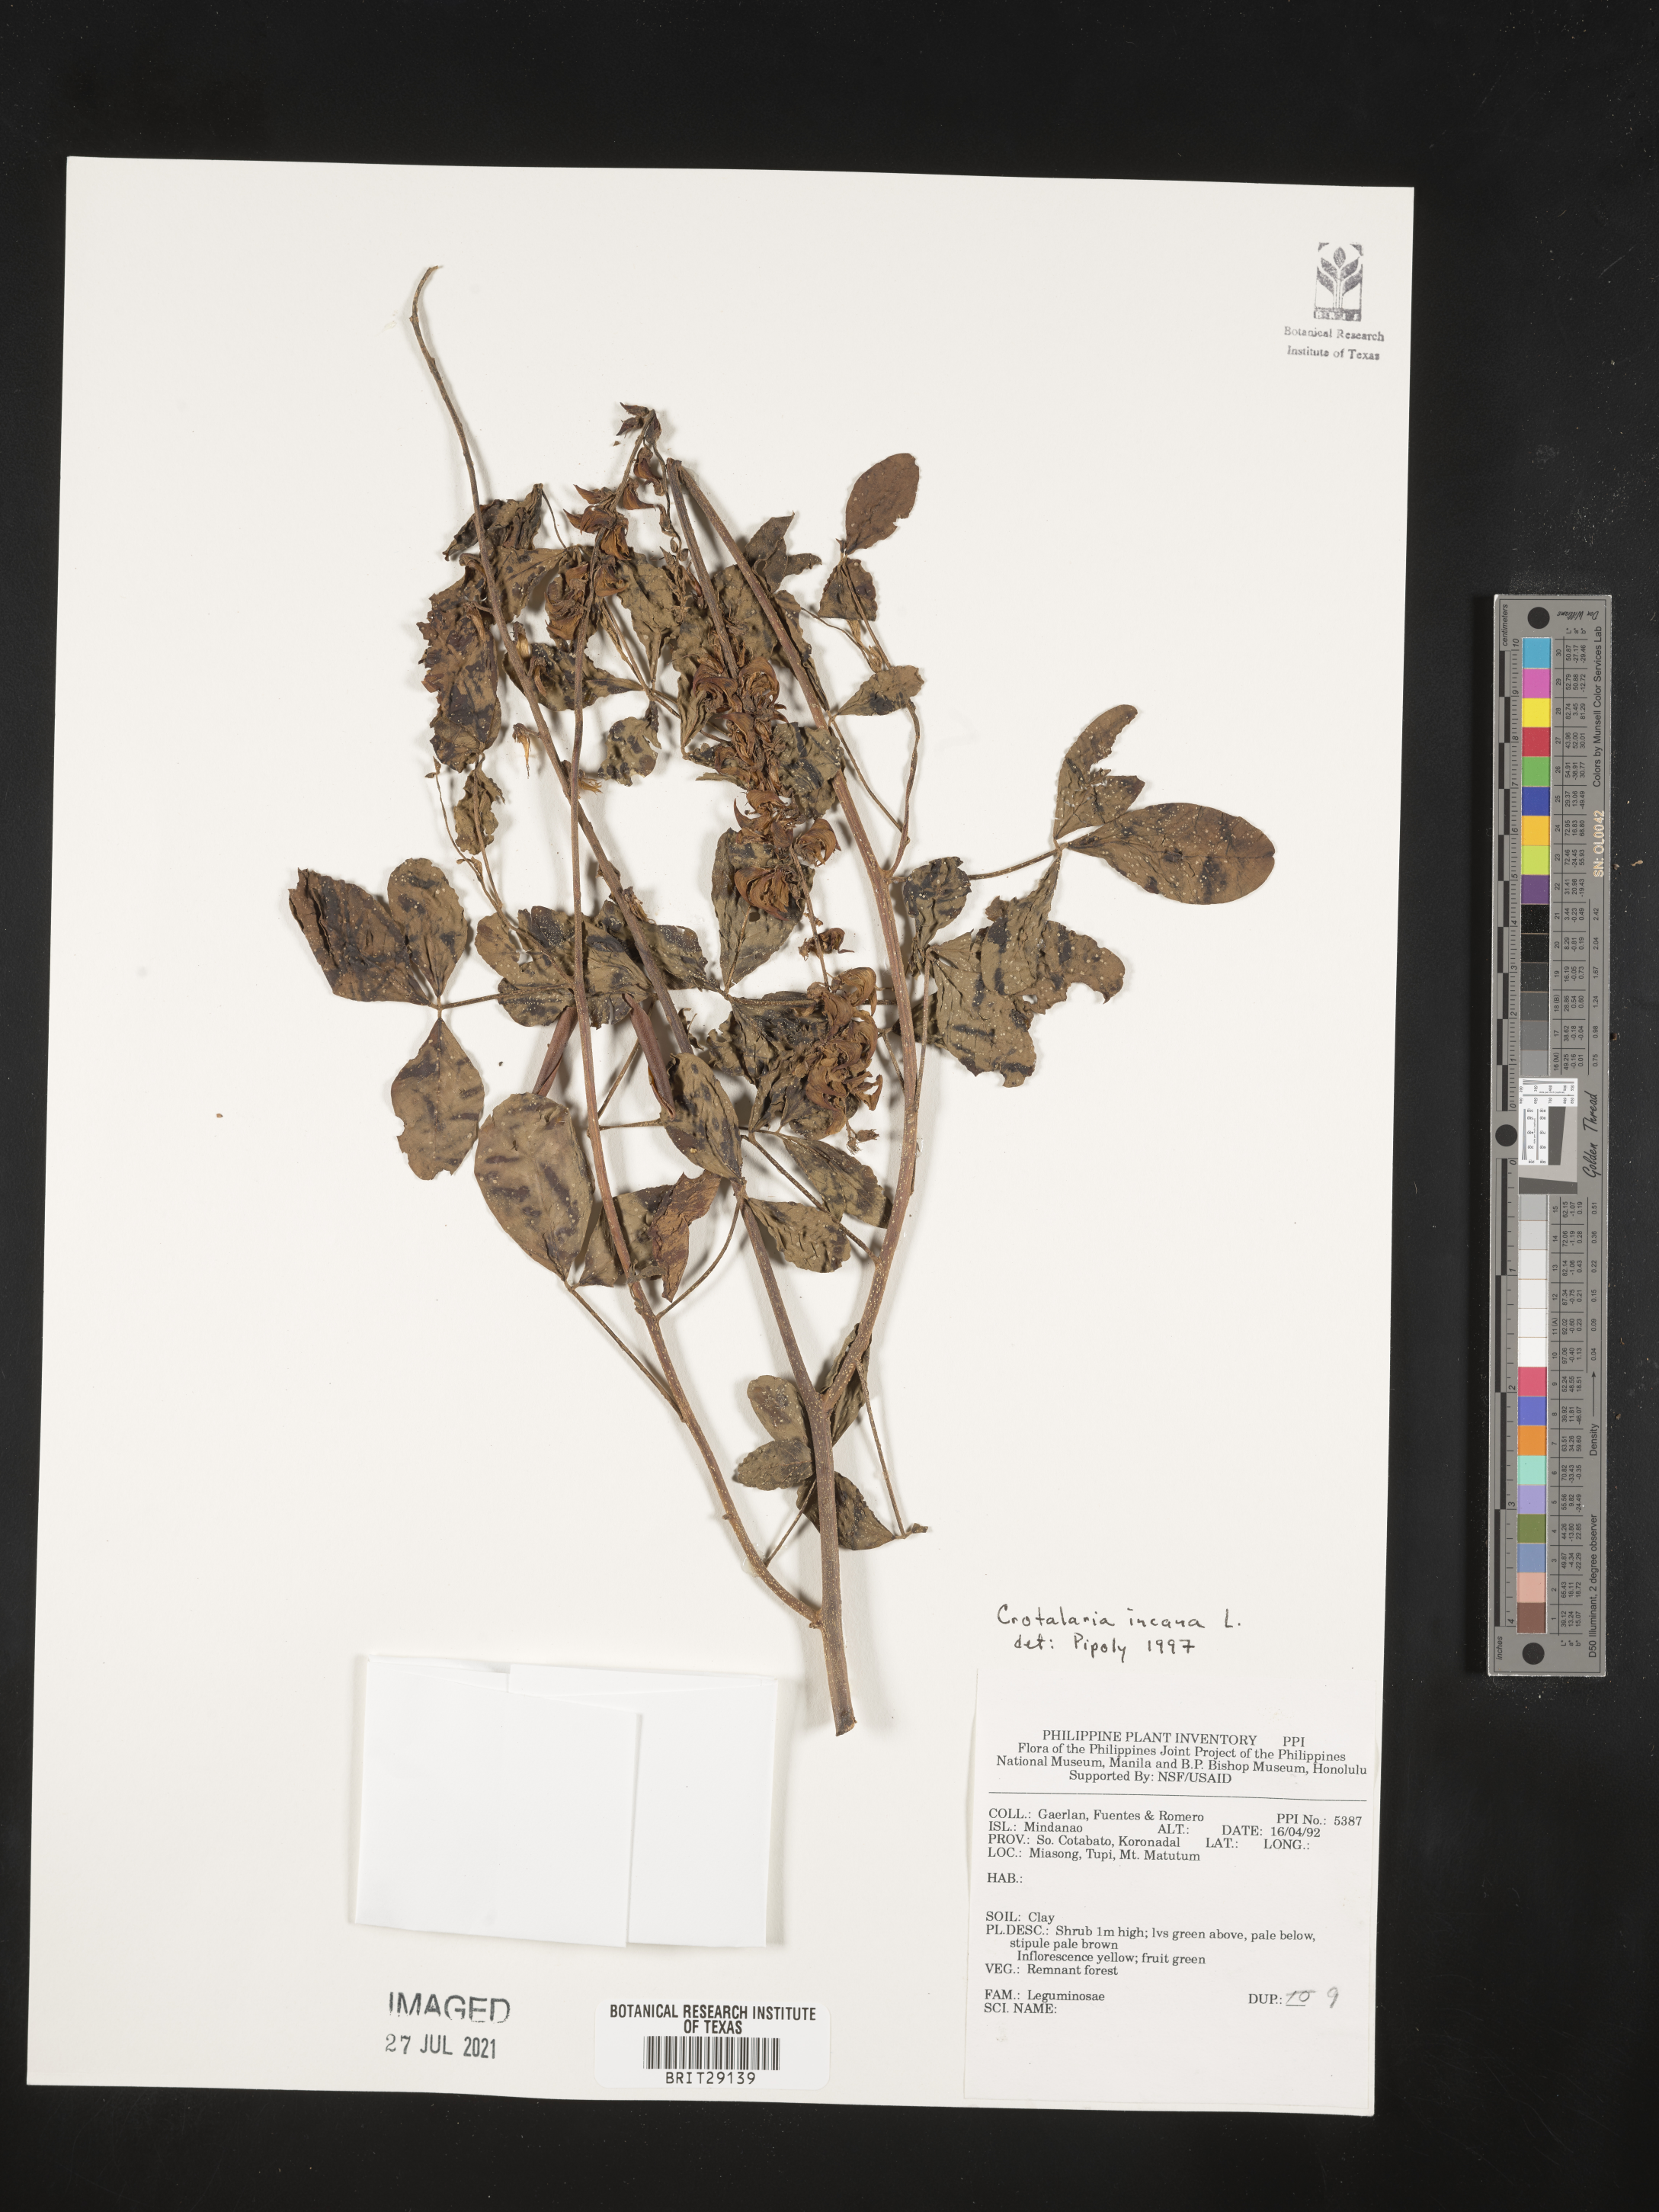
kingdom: Plantae
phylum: Tracheophyta
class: Magnoliopsida
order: Fabales
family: Fabaceae
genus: Crotalaria
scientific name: Crotalaria incana
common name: Shakeshake
